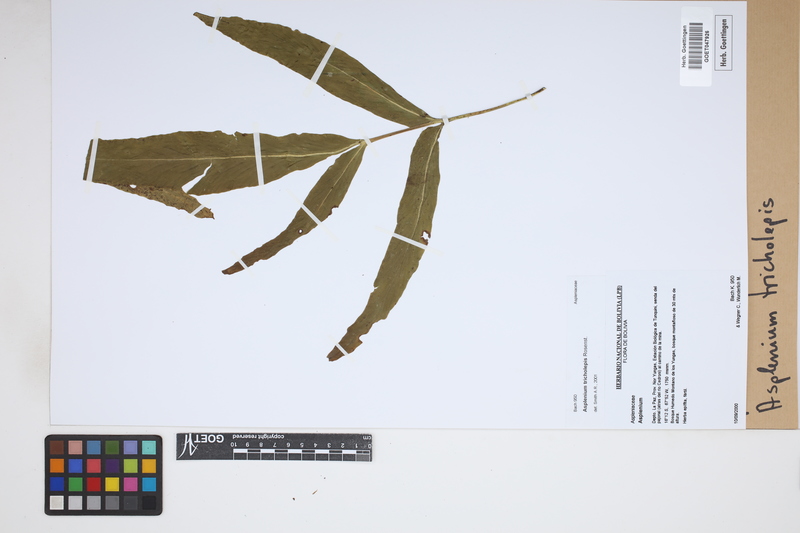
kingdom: Plantae
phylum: Tracheophyta
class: Polypodiopsida
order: Polypodiales
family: Aspleniaceae
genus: Asplenium
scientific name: Asplenium tricholepis
